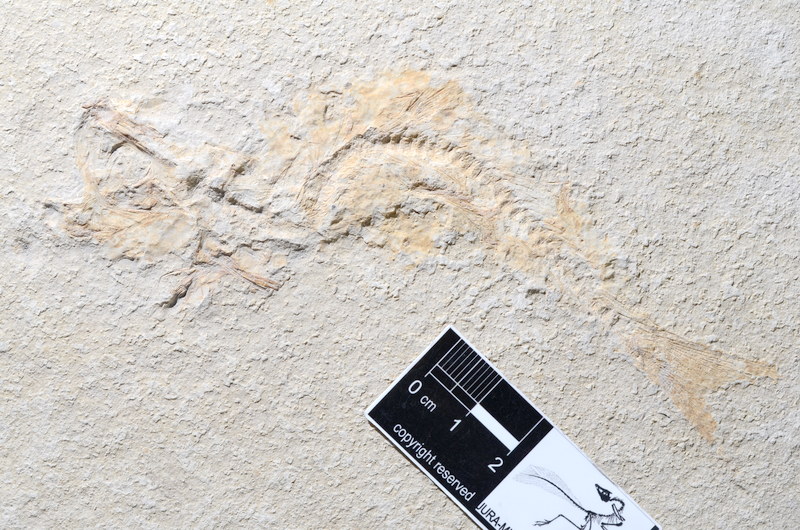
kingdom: Animalia
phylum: Chordata
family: Ascalaboidae
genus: Tharsis
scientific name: Tharsis dubius
